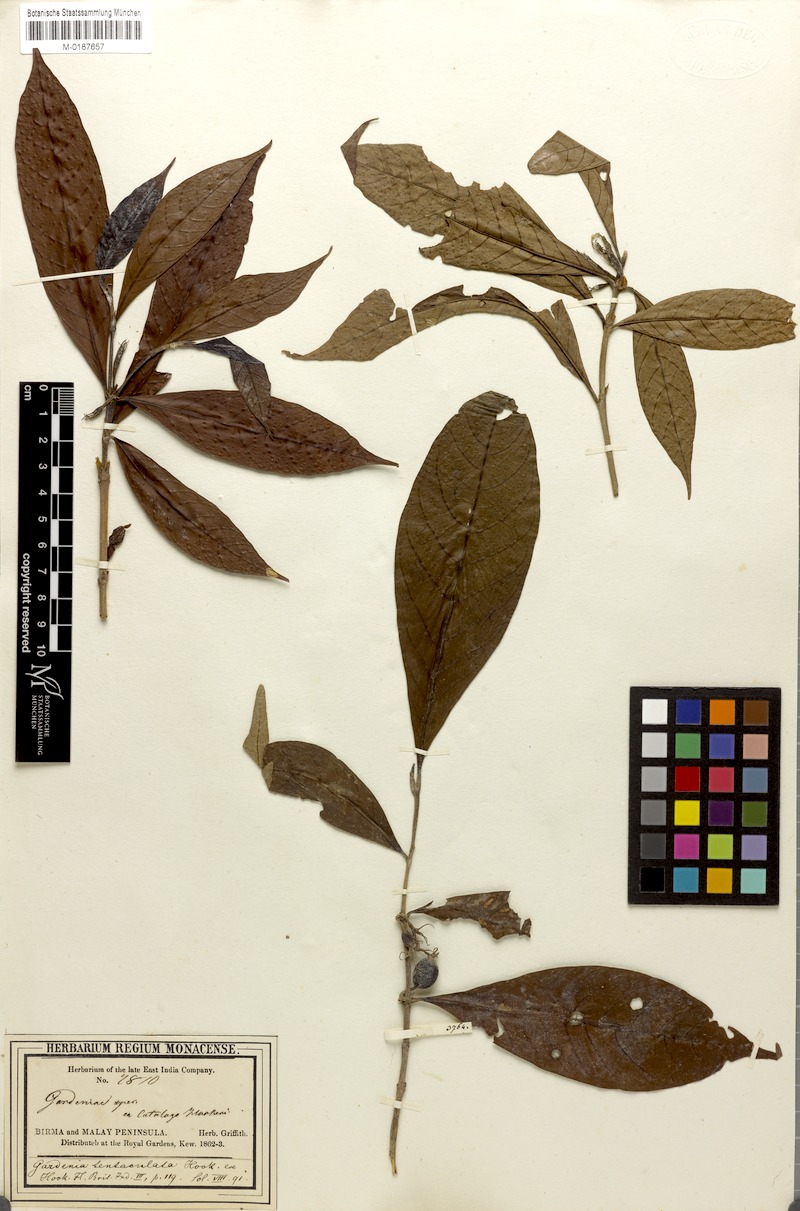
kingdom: Plantae
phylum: Tracheophyta
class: Magnoliopsida
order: Gentianales
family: Rubiaceae
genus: Kailarsenia
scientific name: Kailarsenia tentaculata
